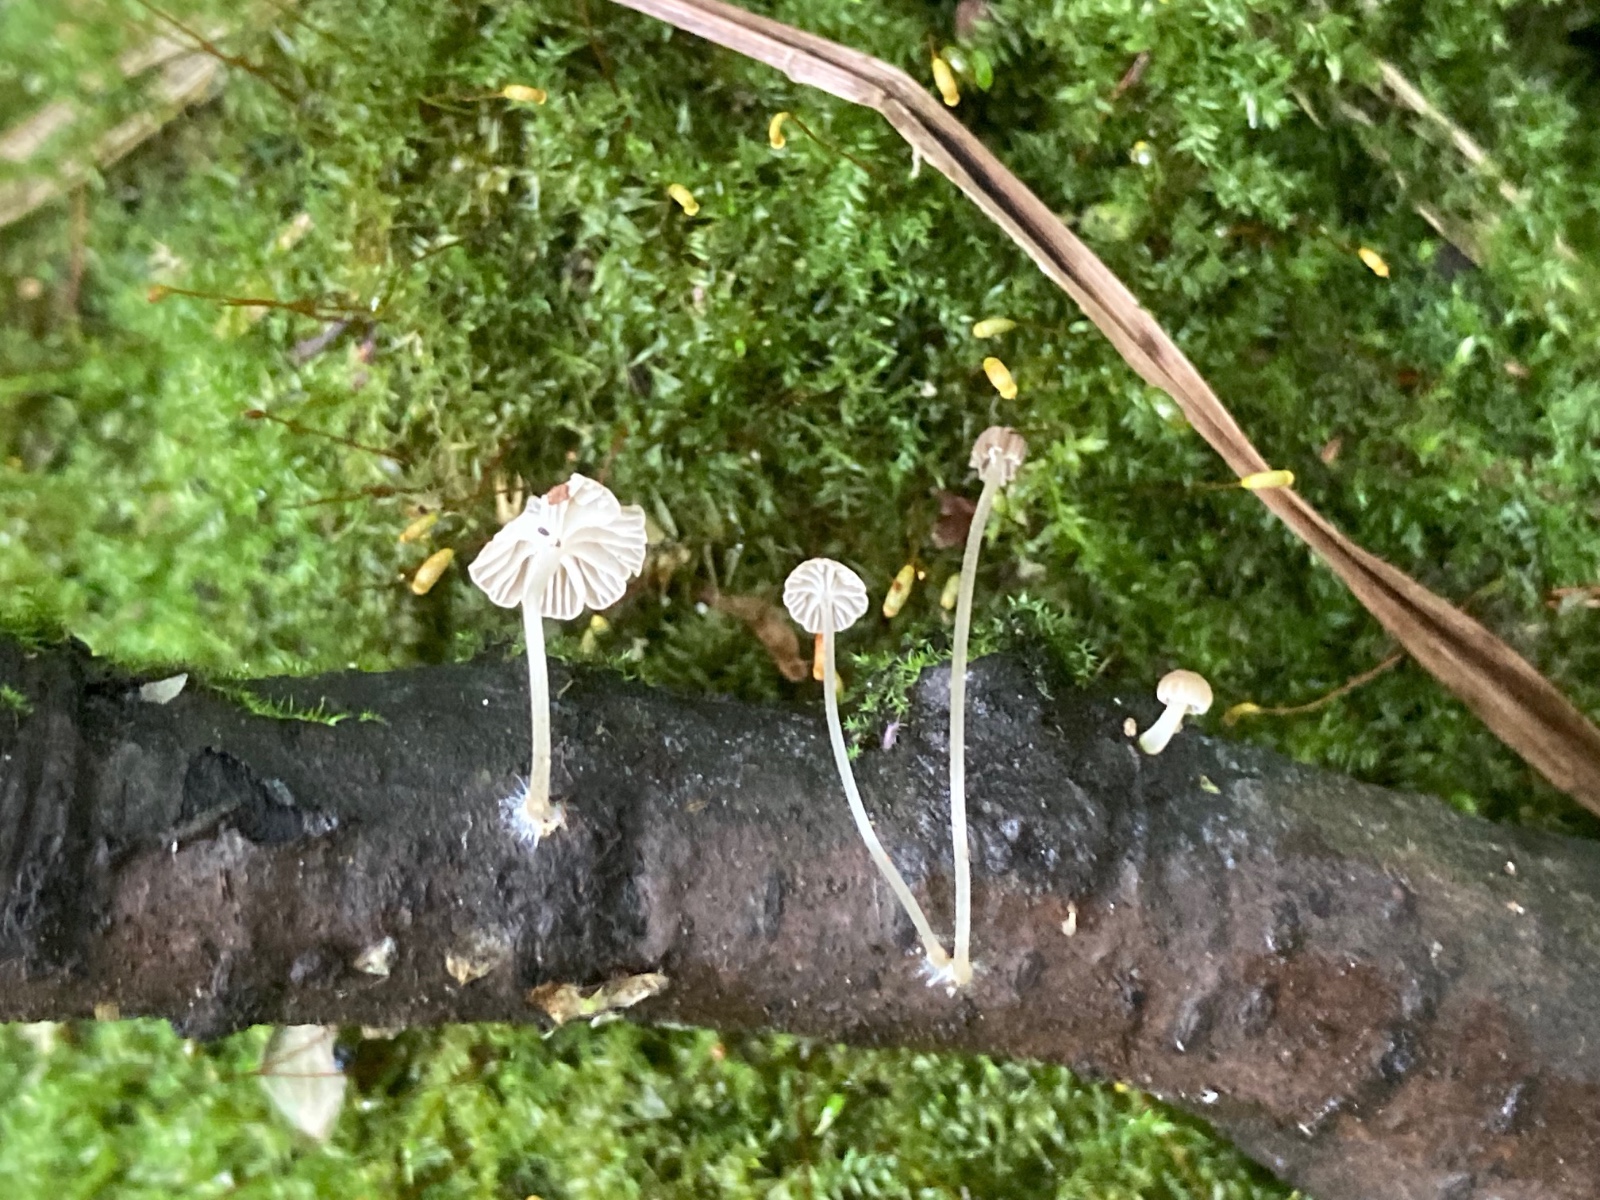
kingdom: Fungi
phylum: Basidiomycota
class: Agaricomycetes
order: Agaricales
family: Porotheleaceae
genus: Phloeomana
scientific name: Phloeomana speirea
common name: kvist-huesvamp
